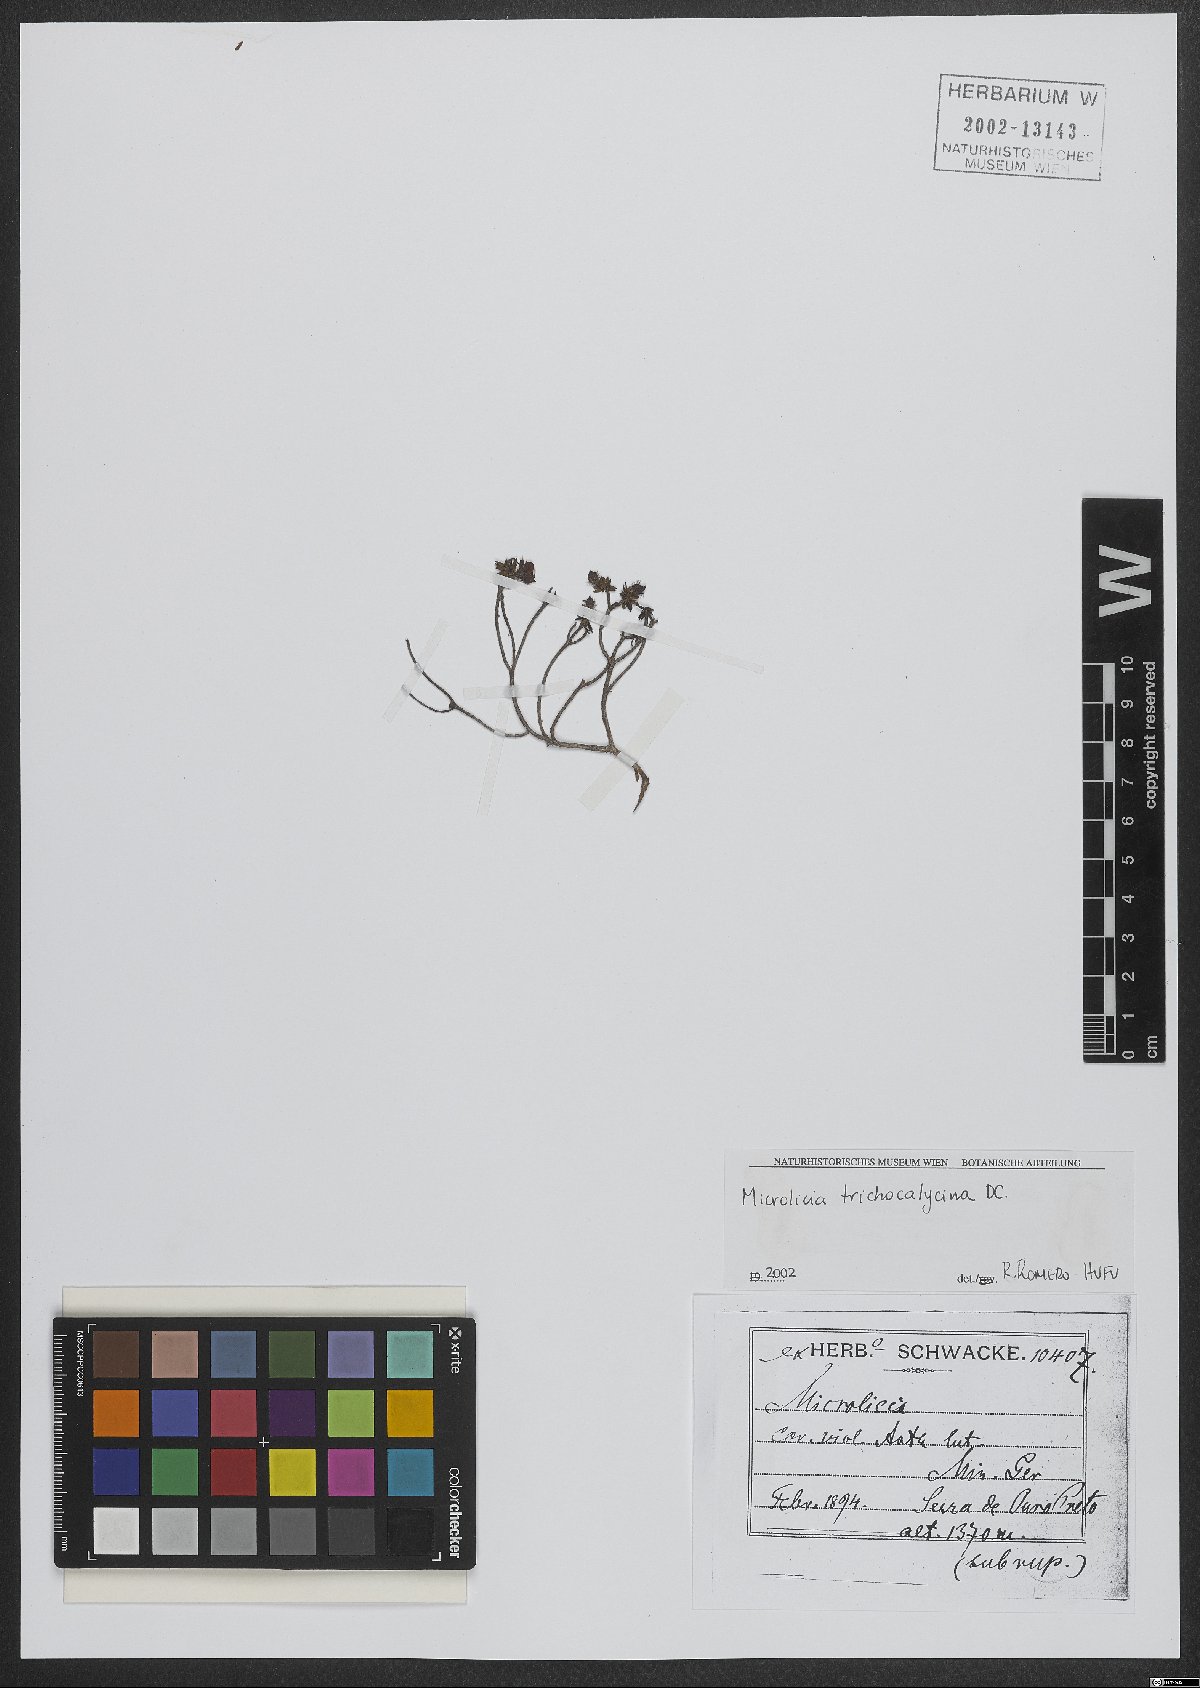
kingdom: Plantae
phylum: Tracheophyta
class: Magnoliopsida
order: Myrtales
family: Melastomataceae
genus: Microlicia
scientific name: Microlicia trichocalycina
